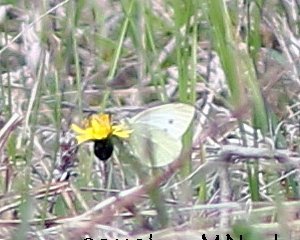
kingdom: Animalia
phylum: Arthropoda
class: Insecta
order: Lepidoptera
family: Pieridae
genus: Pieris
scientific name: Pieris rapae
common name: Cabbage White
